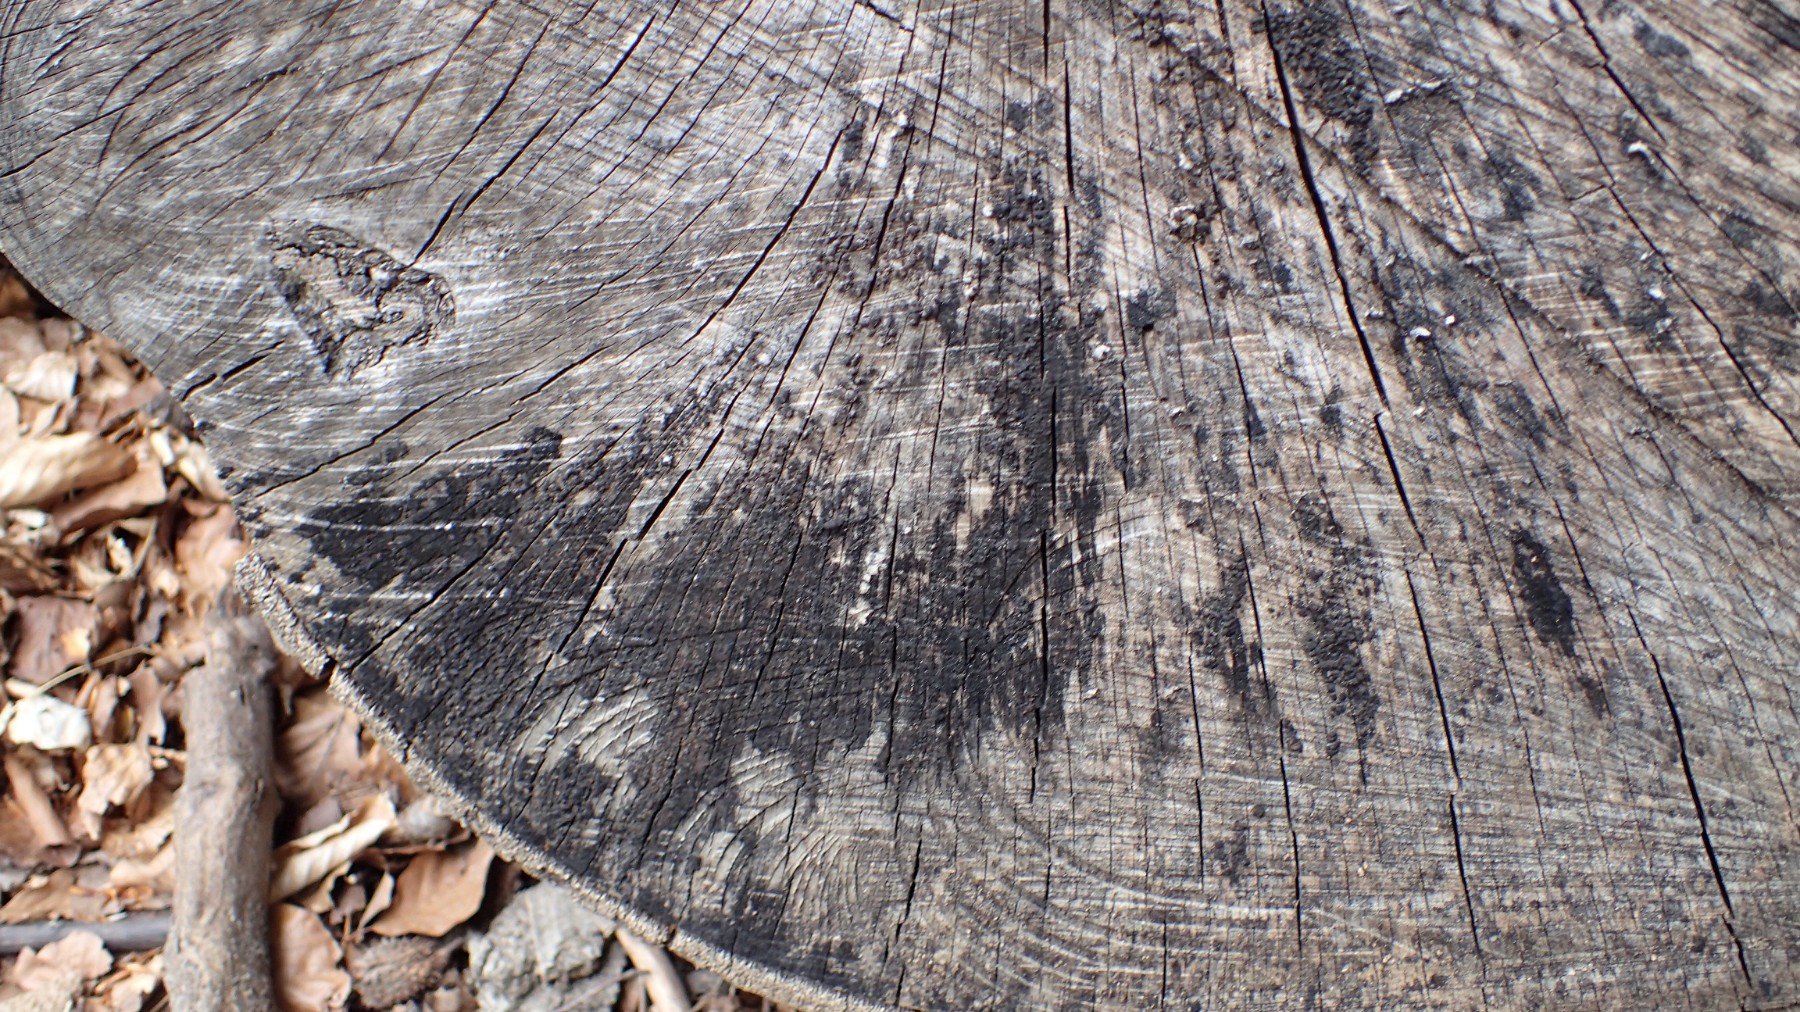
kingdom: Fungi
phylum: Ascomycota
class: Leotiomycetes
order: Helotiales
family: Helotiaceae
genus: Bispora
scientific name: Bispora pallescens
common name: måtte-snitskive
